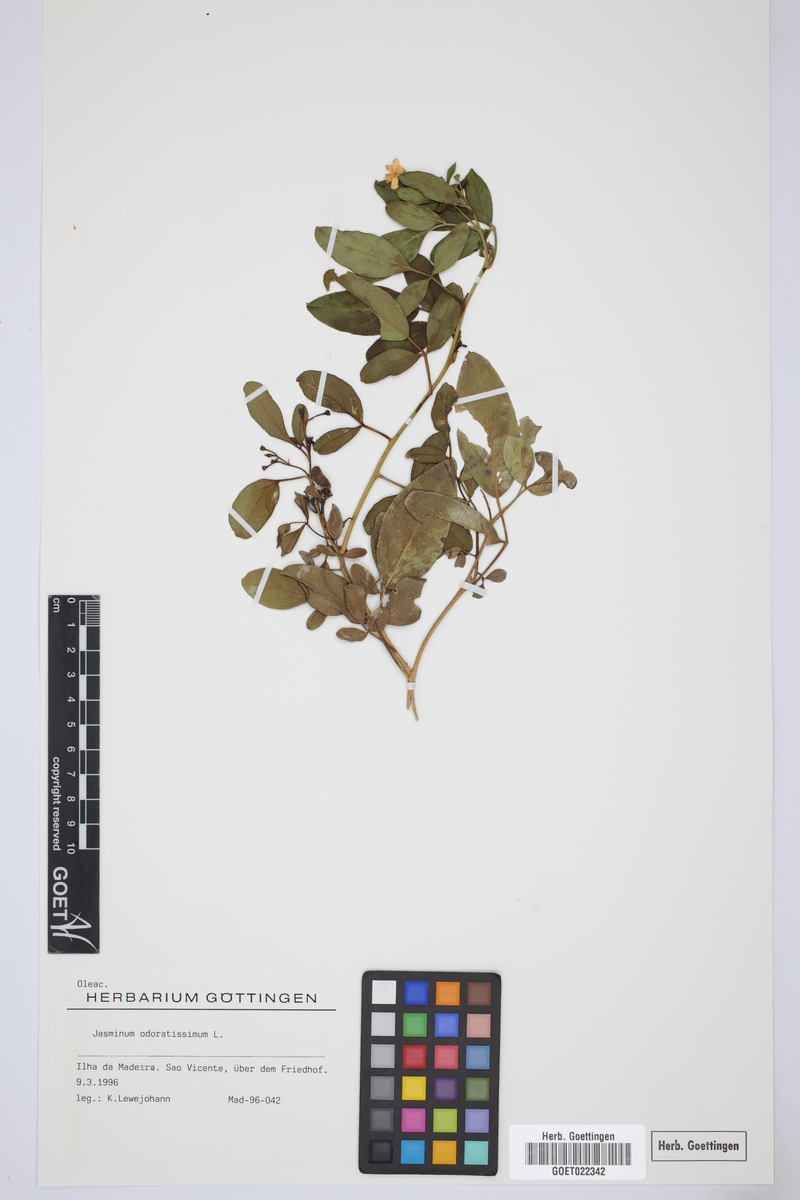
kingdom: Plantae
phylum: Tracheophyta
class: Magnoliopsida
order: Lamiales
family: Oleaceae
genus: Chrysojasminum
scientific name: Chrysojasminum odoratissimum
